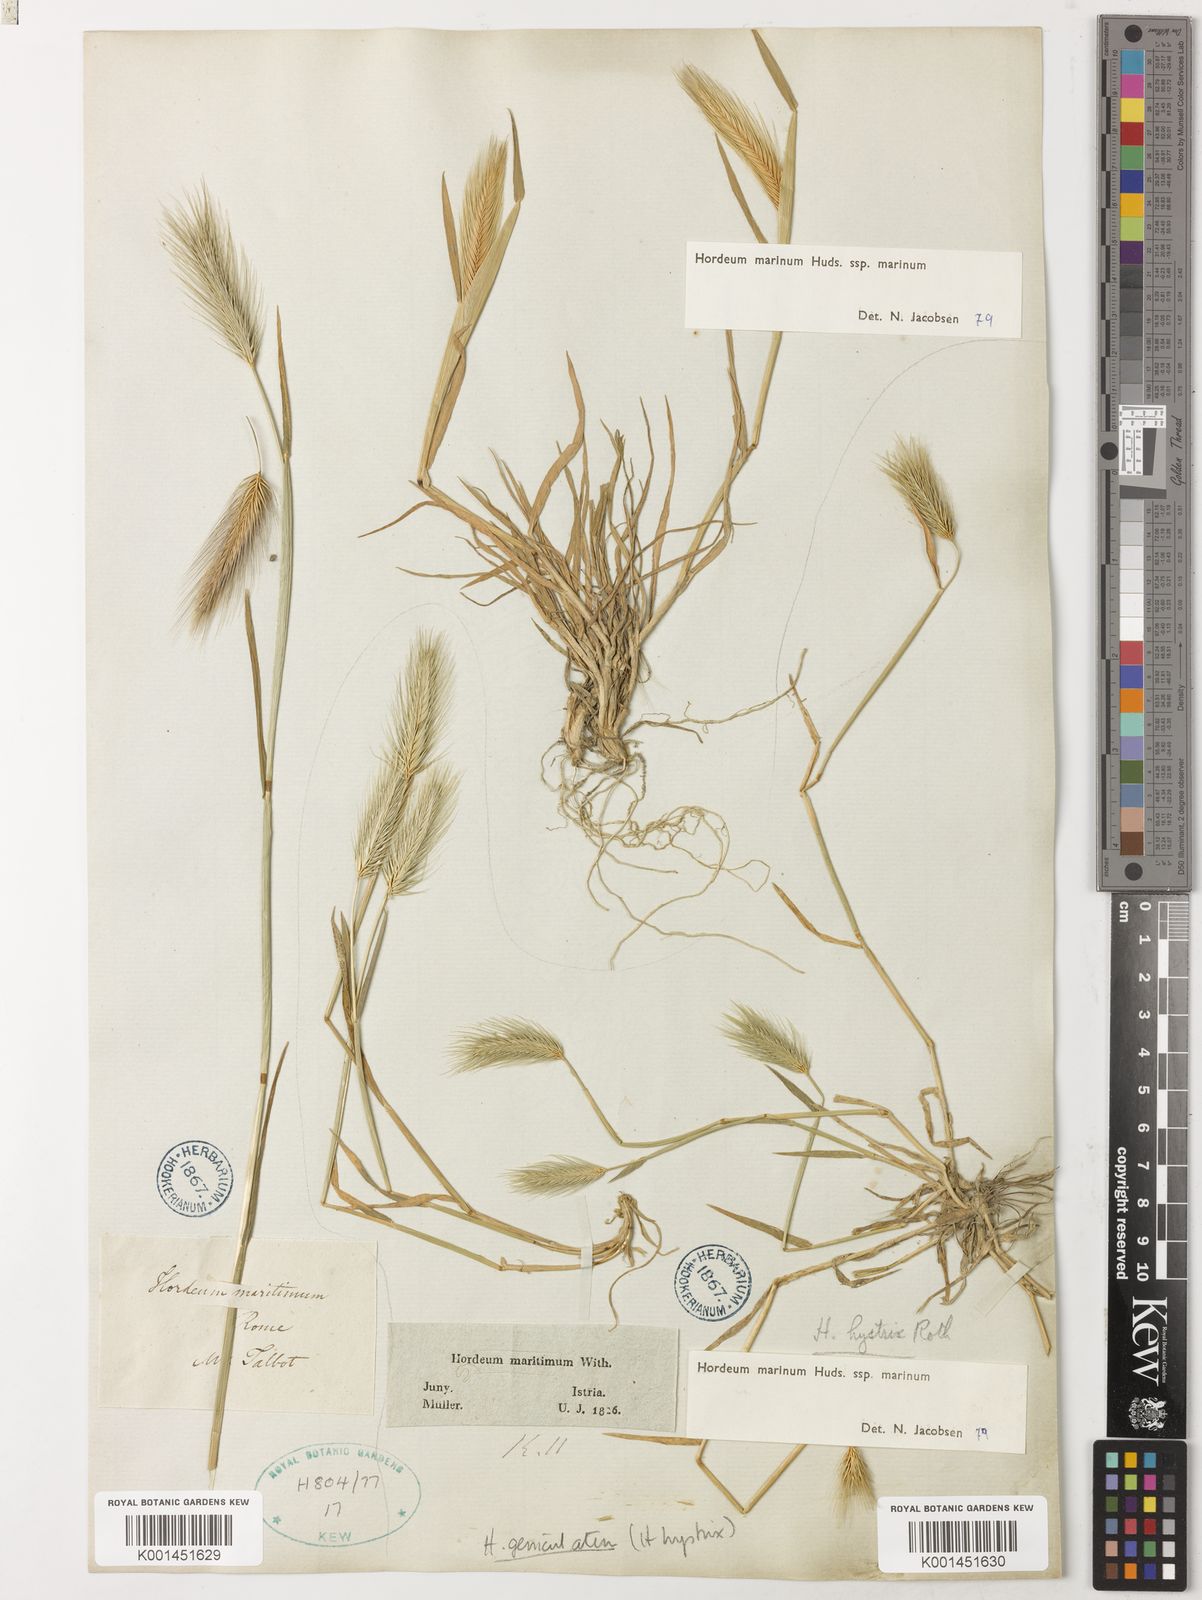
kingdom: Plantae
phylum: Tracheophyta
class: Liliopsida
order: Poales
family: Poaceae
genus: Hordeum
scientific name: Hordeum marinum
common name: Sea barley
